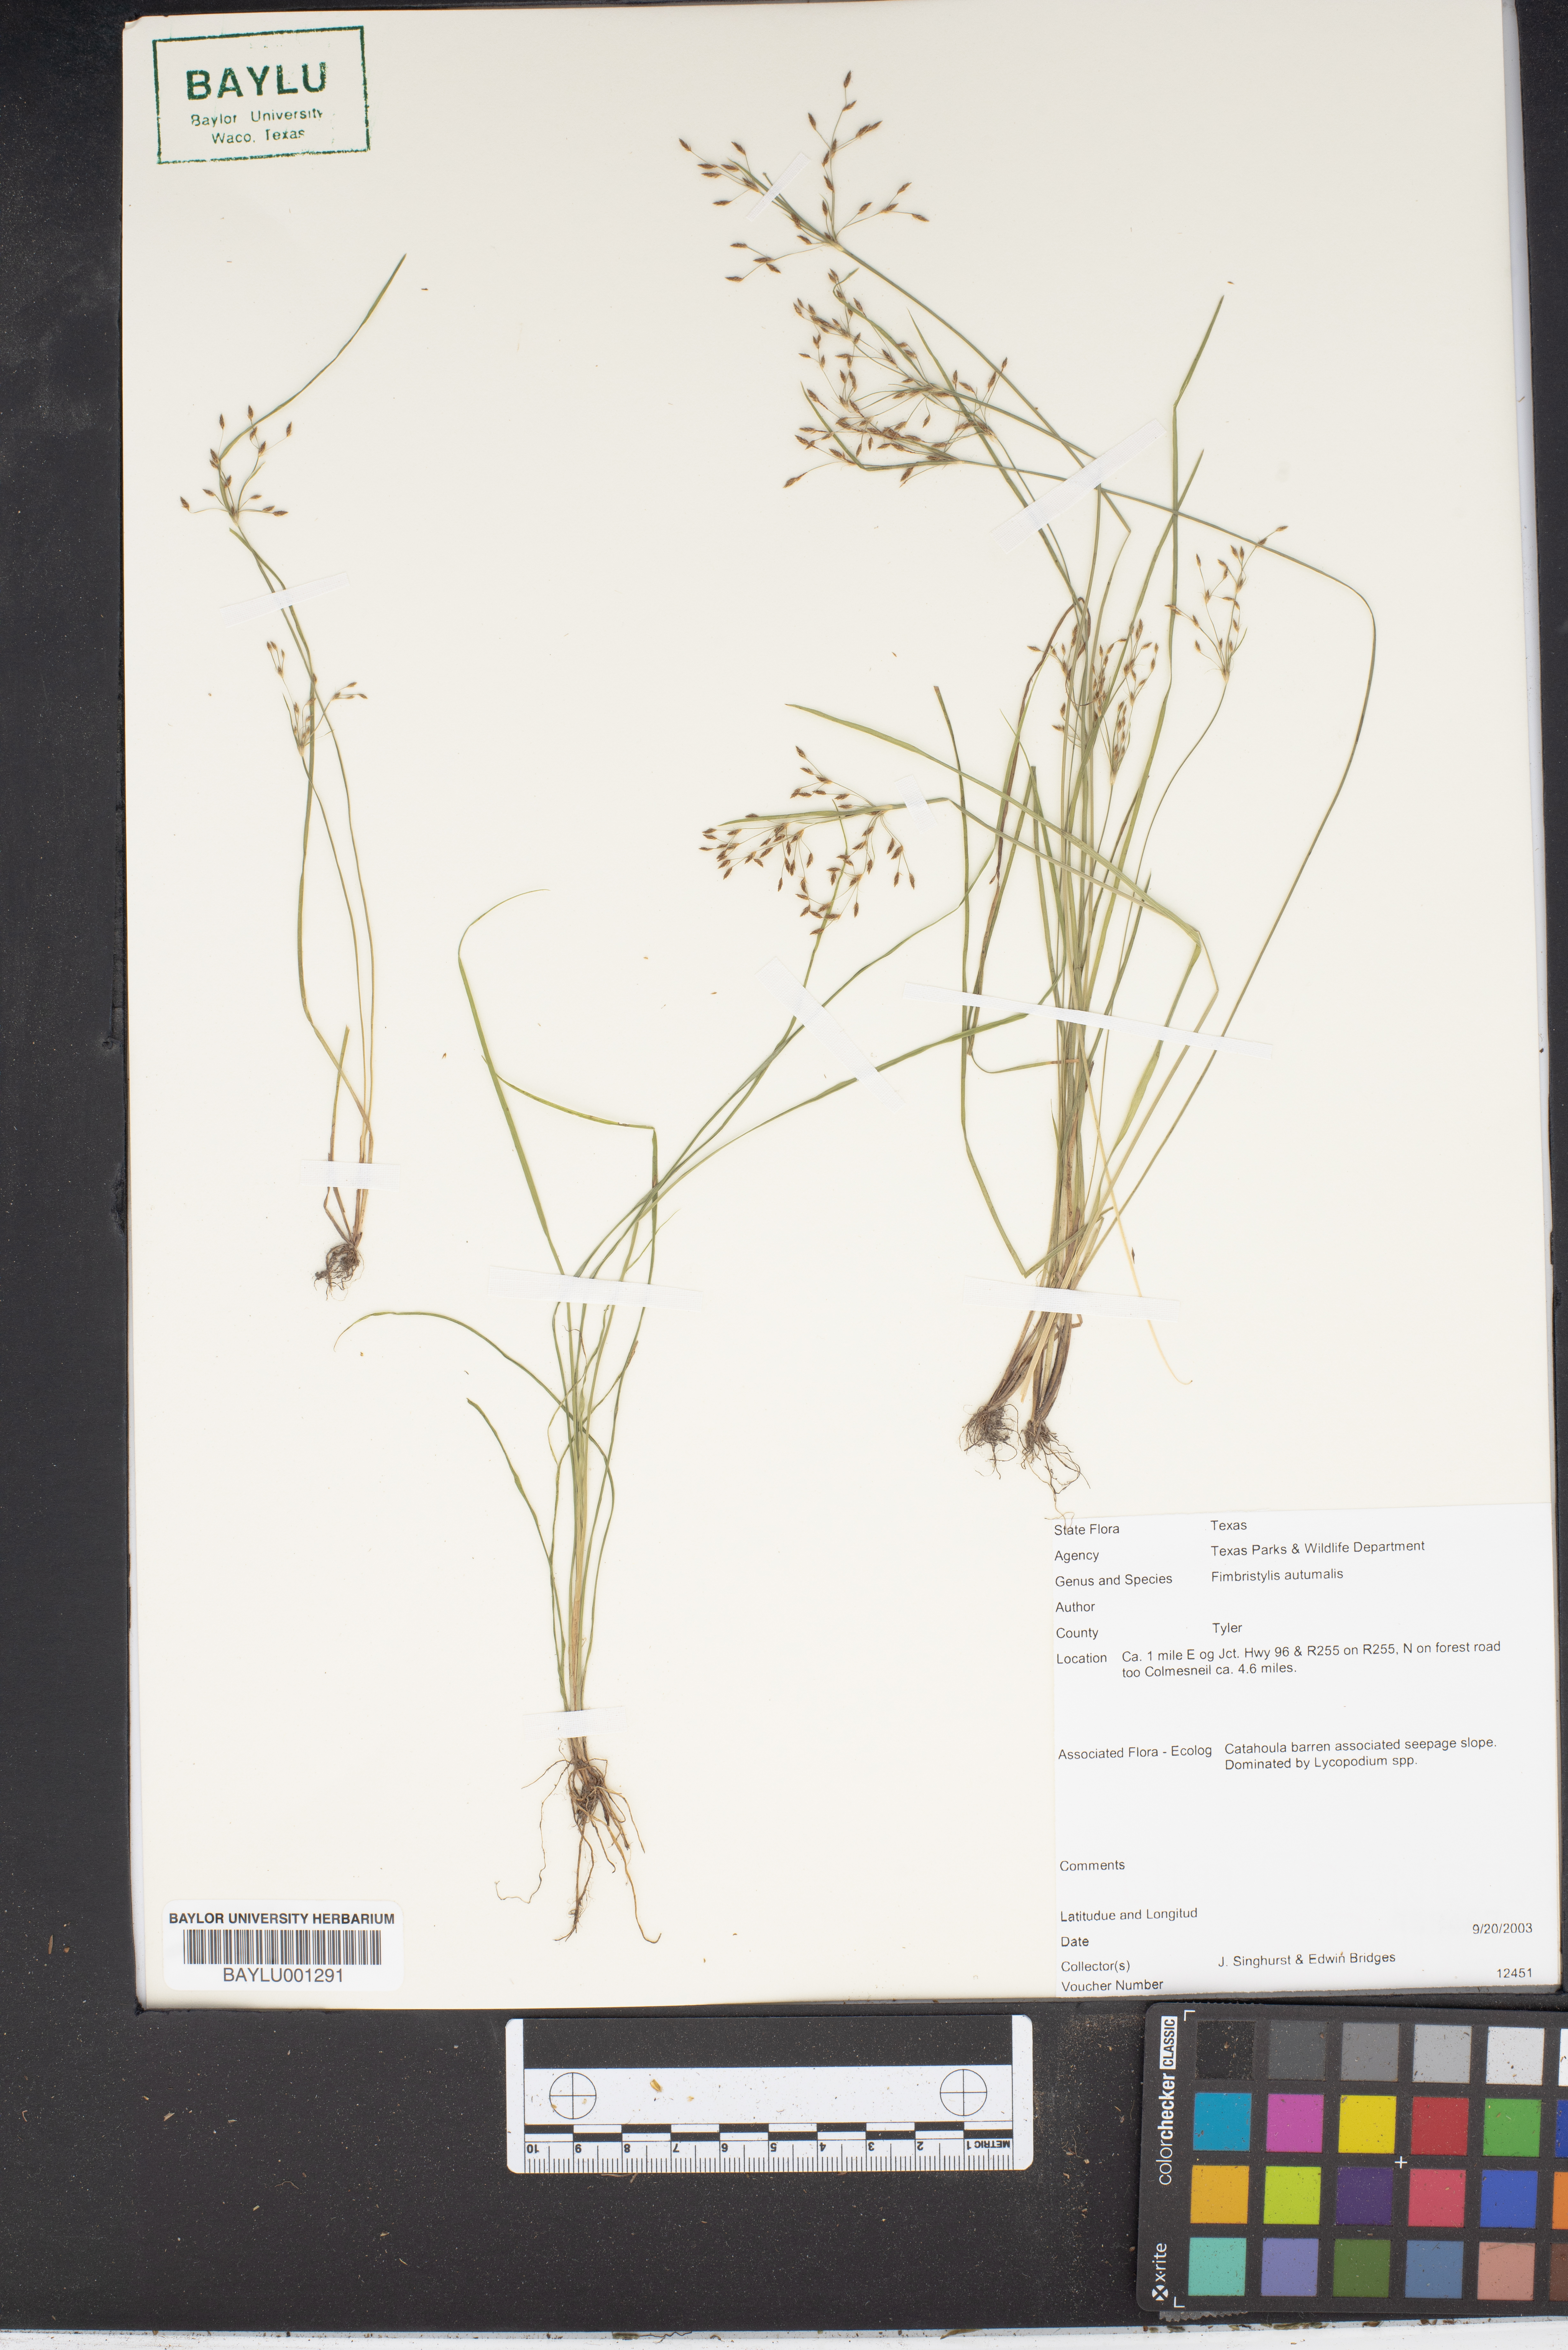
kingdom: Plantae
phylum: Tracheophyta
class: Liliopsida
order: Poales
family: Cyperaceae
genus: Fimbristylis
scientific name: Fimbristylis autumnalis
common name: Slender fimbristylis
